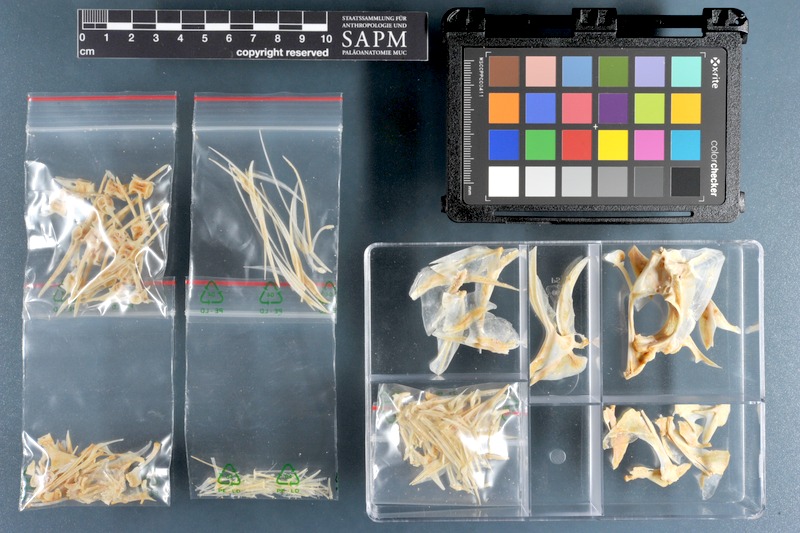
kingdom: Animalia
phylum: Chordata
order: Perciformes
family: Carangidae
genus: Carangoides
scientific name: Carangoides chrysophrys
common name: Longnose trevally
